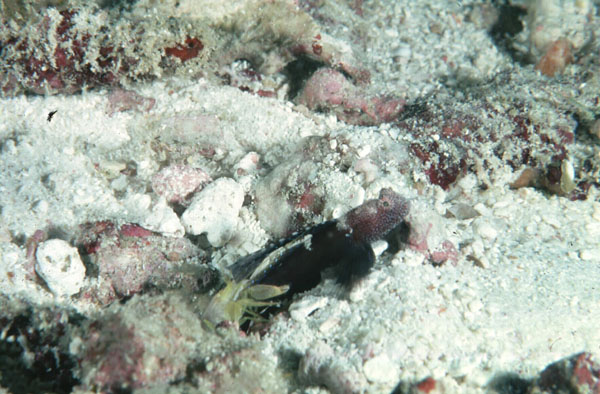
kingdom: Animalia
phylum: Chordata
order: Perciformes
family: Gobiidae
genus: Tomiyamichthys
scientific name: Tomiyamichthys praealtus
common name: Tall-fin shrimp-goby
